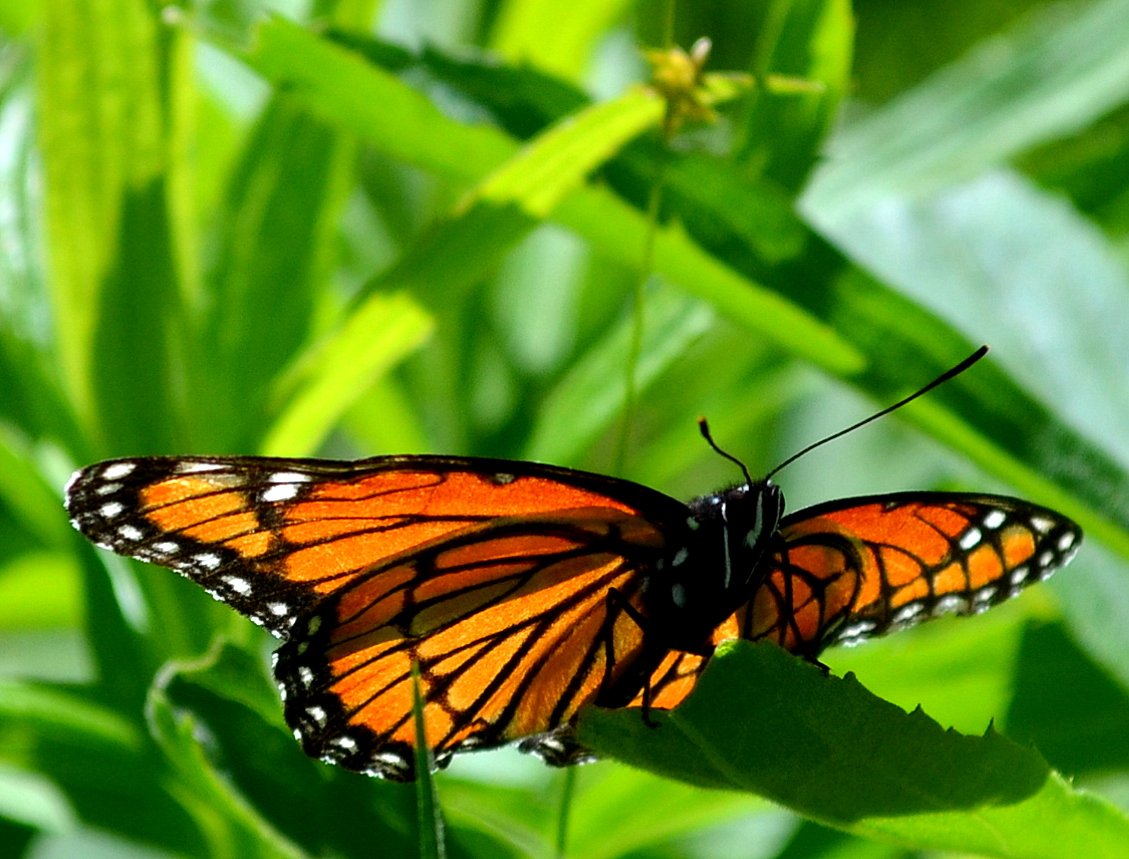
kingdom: Animalia
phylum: Arthropoda
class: Insecta
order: Lepidoptera
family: Nymphalidae
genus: Limenitis
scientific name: Limenitis archippus
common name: Viceroy
